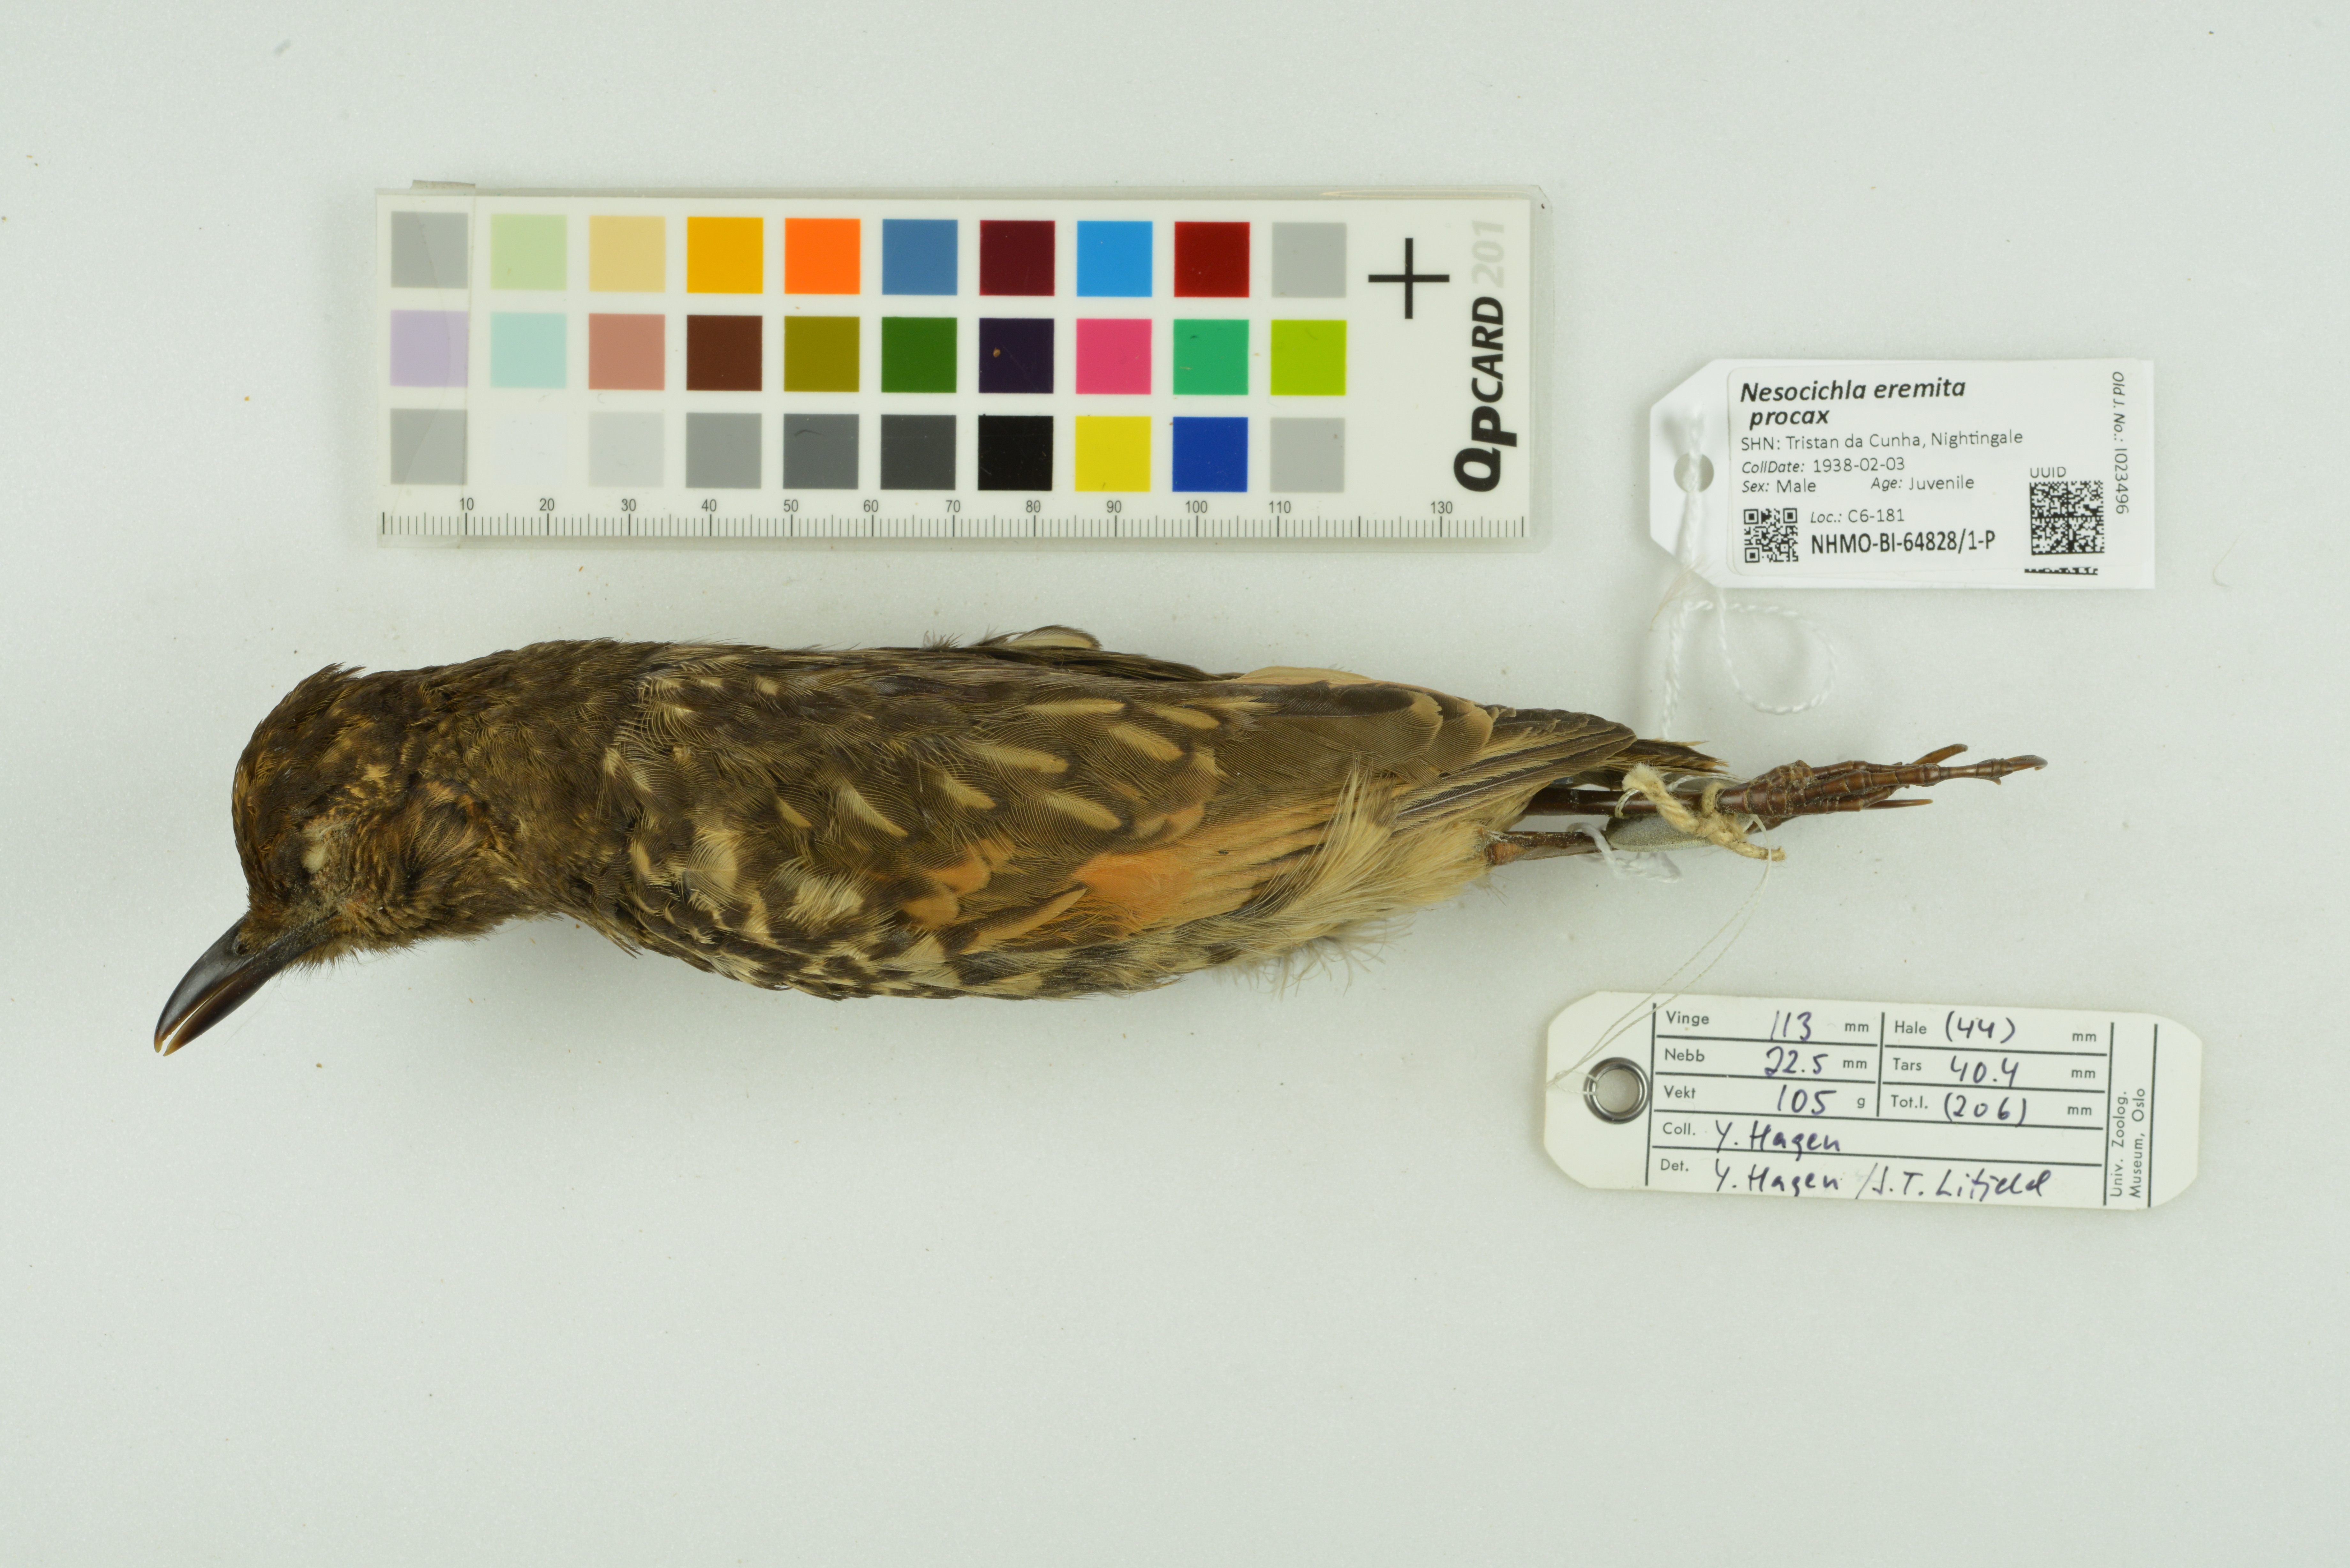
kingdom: Animalia
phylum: Chordata
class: Aves
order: Passeriformes
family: Turdidae
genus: Nesocichla
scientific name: Nesocichla eremita
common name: Tristan thrush
